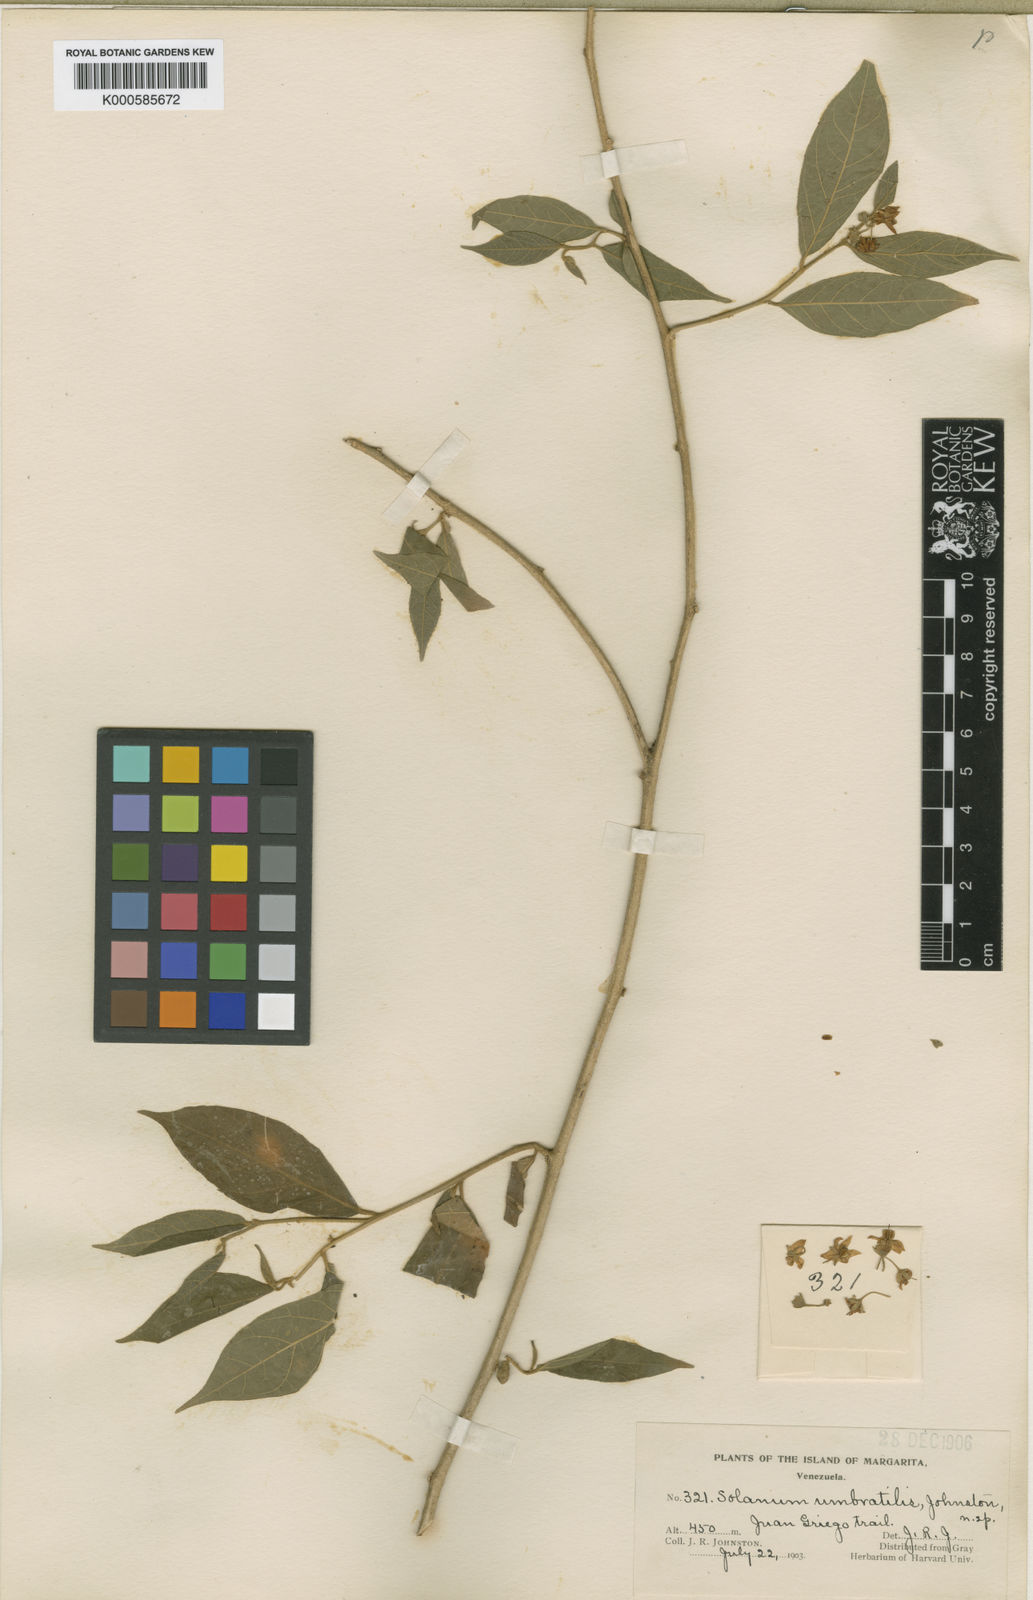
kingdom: Plantae
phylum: Tracheophyta
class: Magnoliopsida
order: Solanales
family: Solanaceae
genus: Solanum
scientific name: Solanum cordovense
